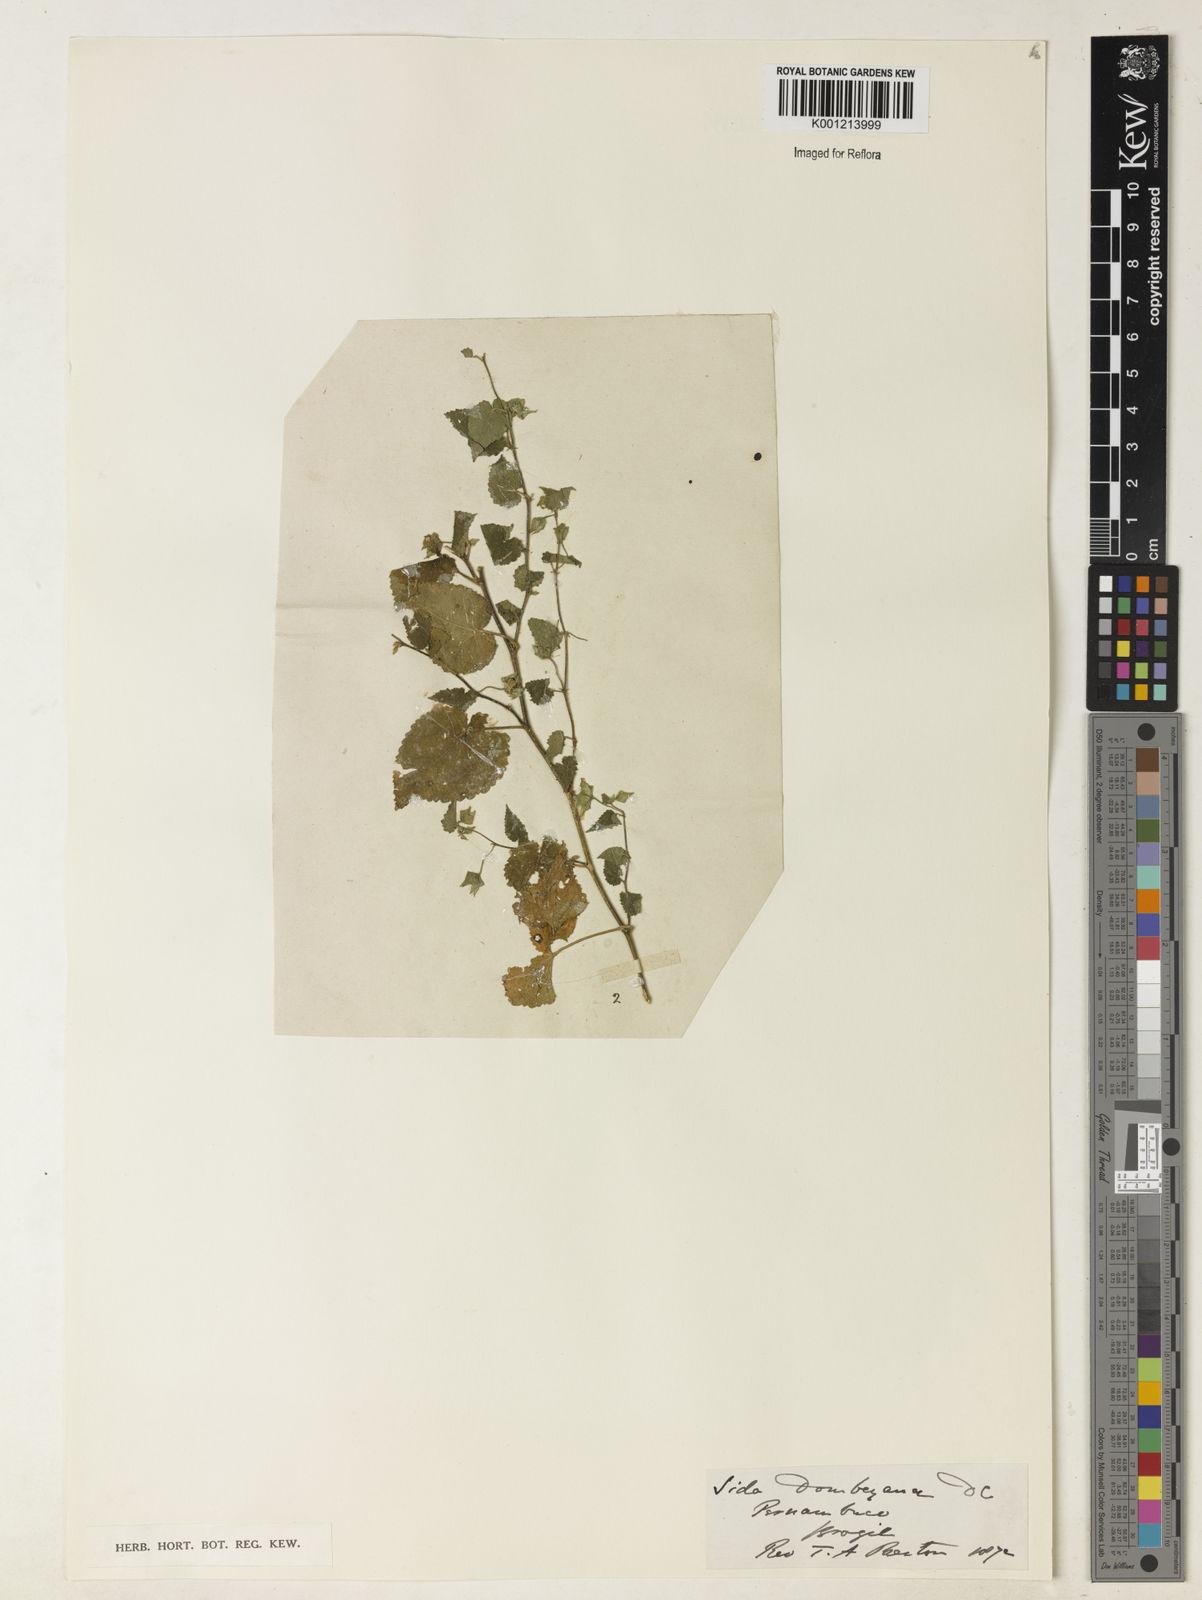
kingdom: Plantae
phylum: Tracheophyta
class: Magnoliopsida
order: Malvales
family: Malvaceae
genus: Sida
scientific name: Sida jussieana
